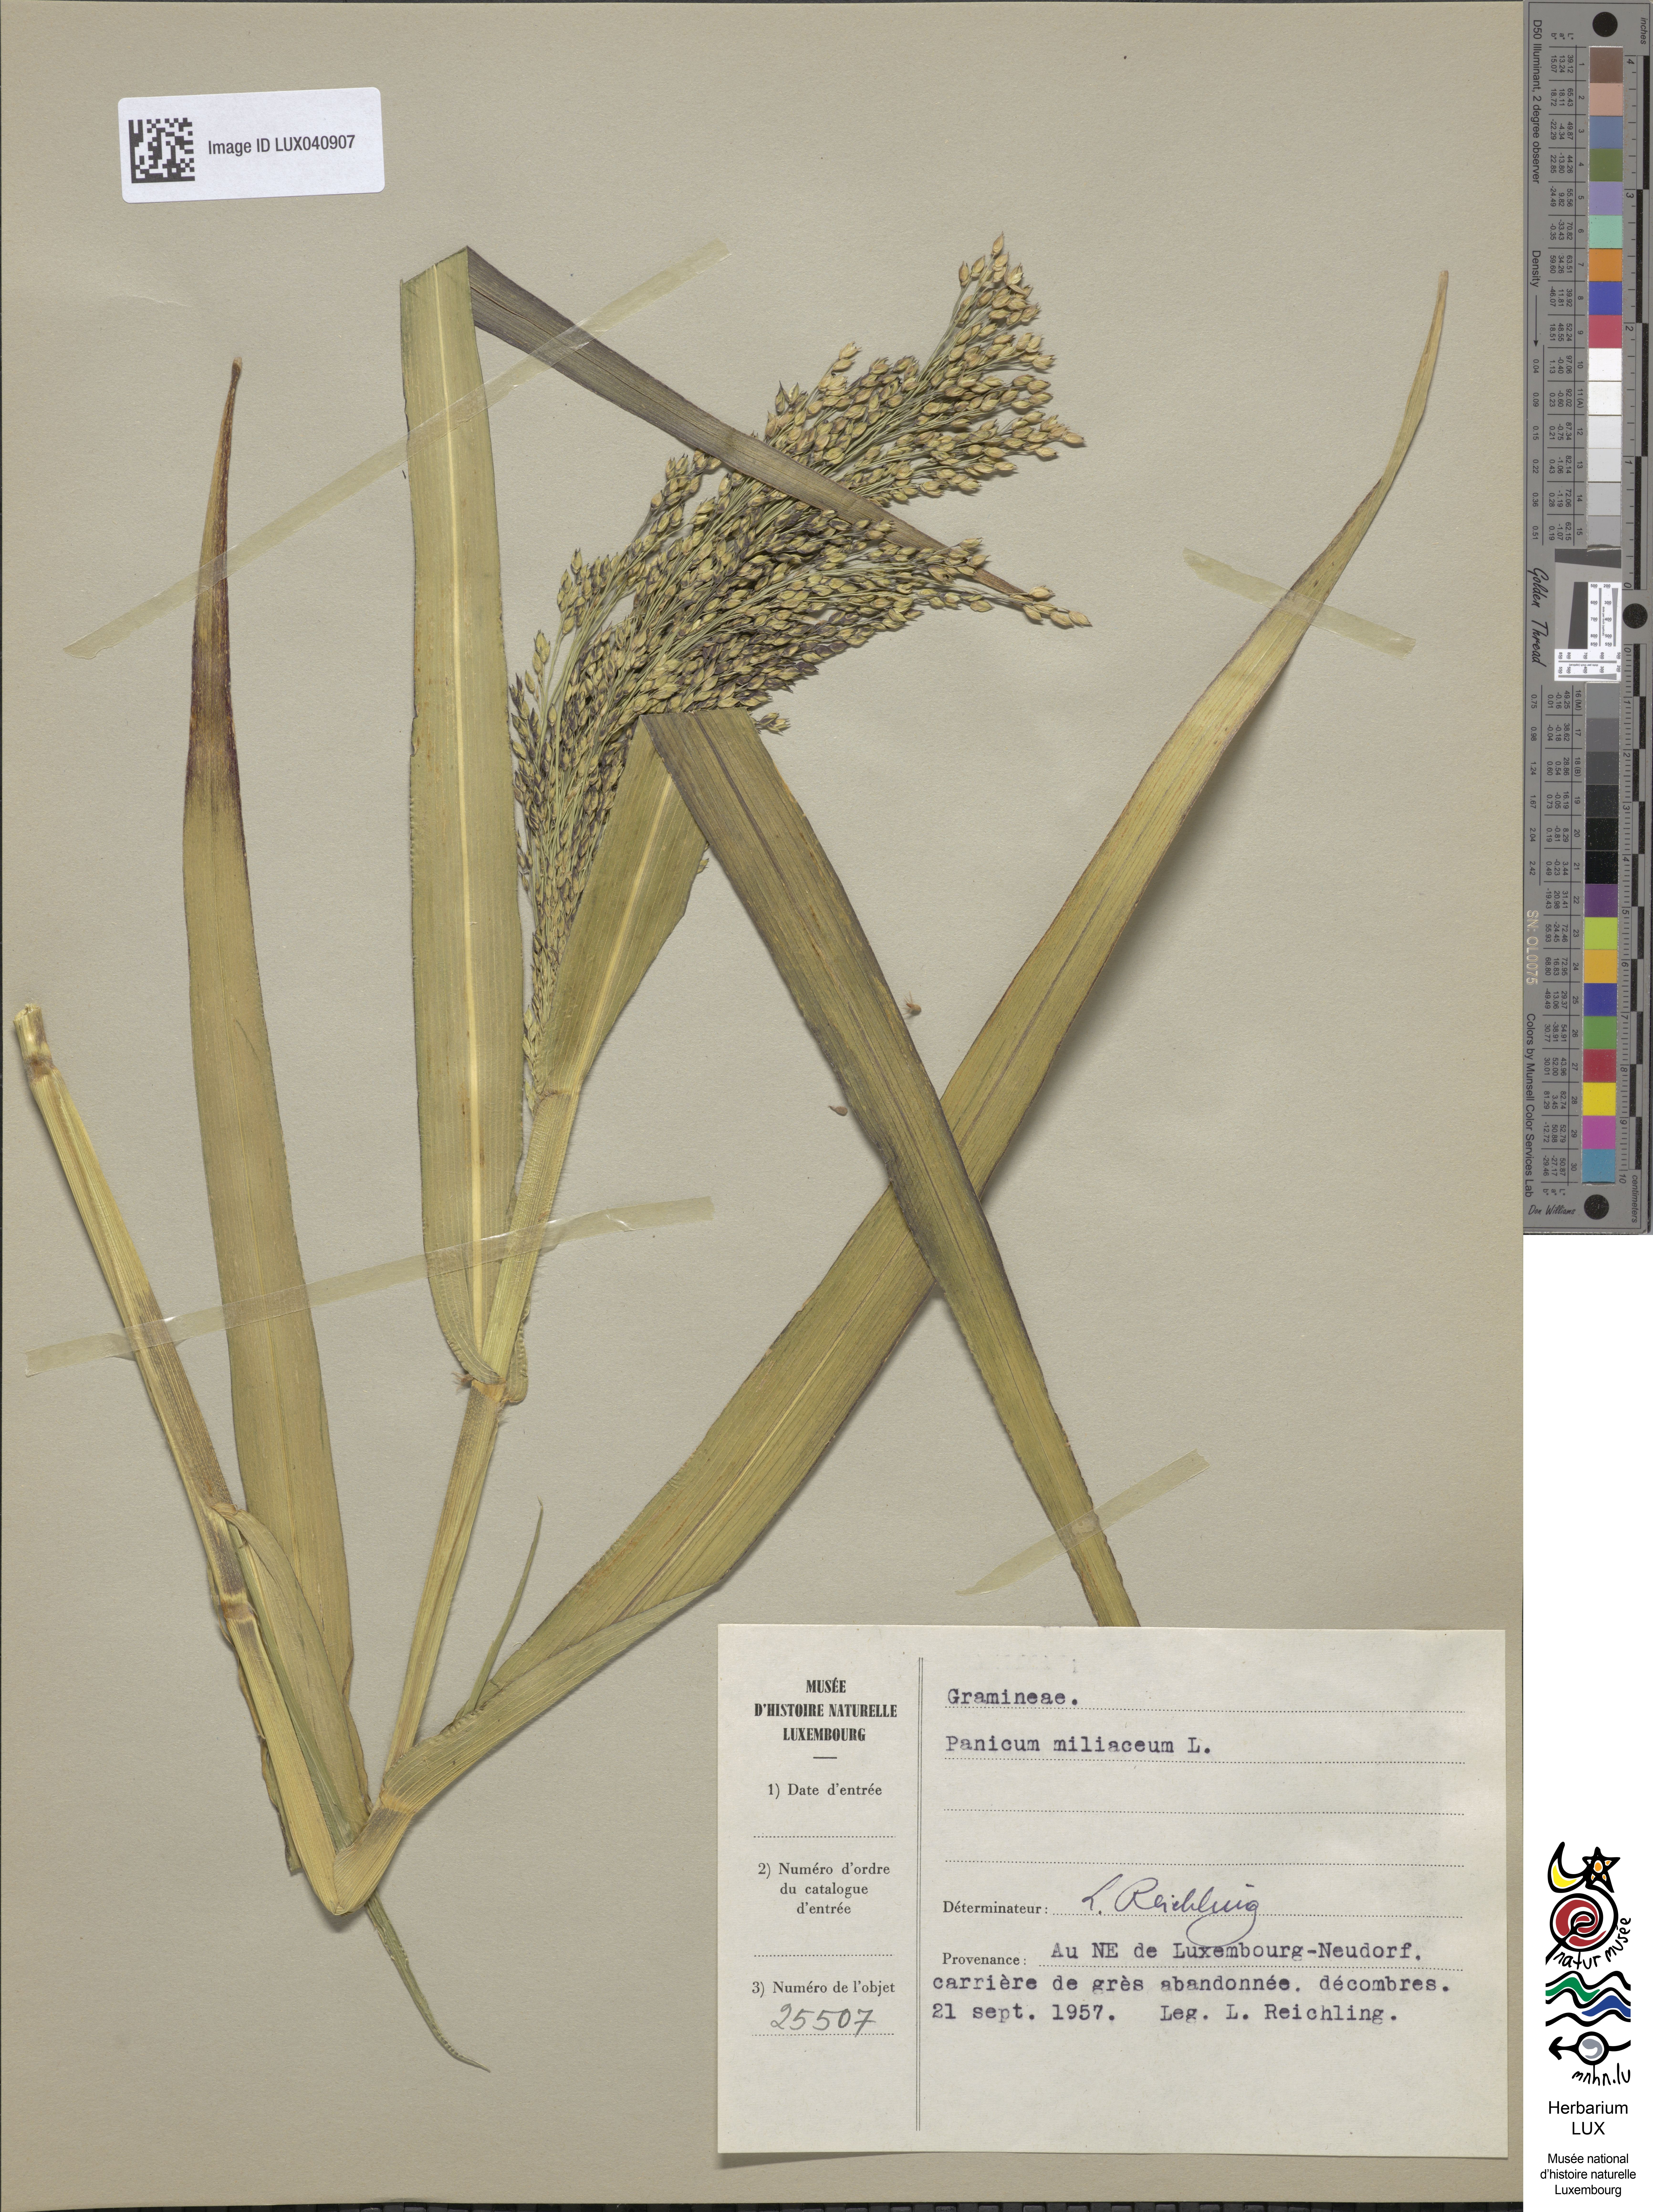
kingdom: Plantae
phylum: Tracheophyta
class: Liliopsida
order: Poales
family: Poaceae
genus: Panicum
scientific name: Panicum miliaceum
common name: Common millet
